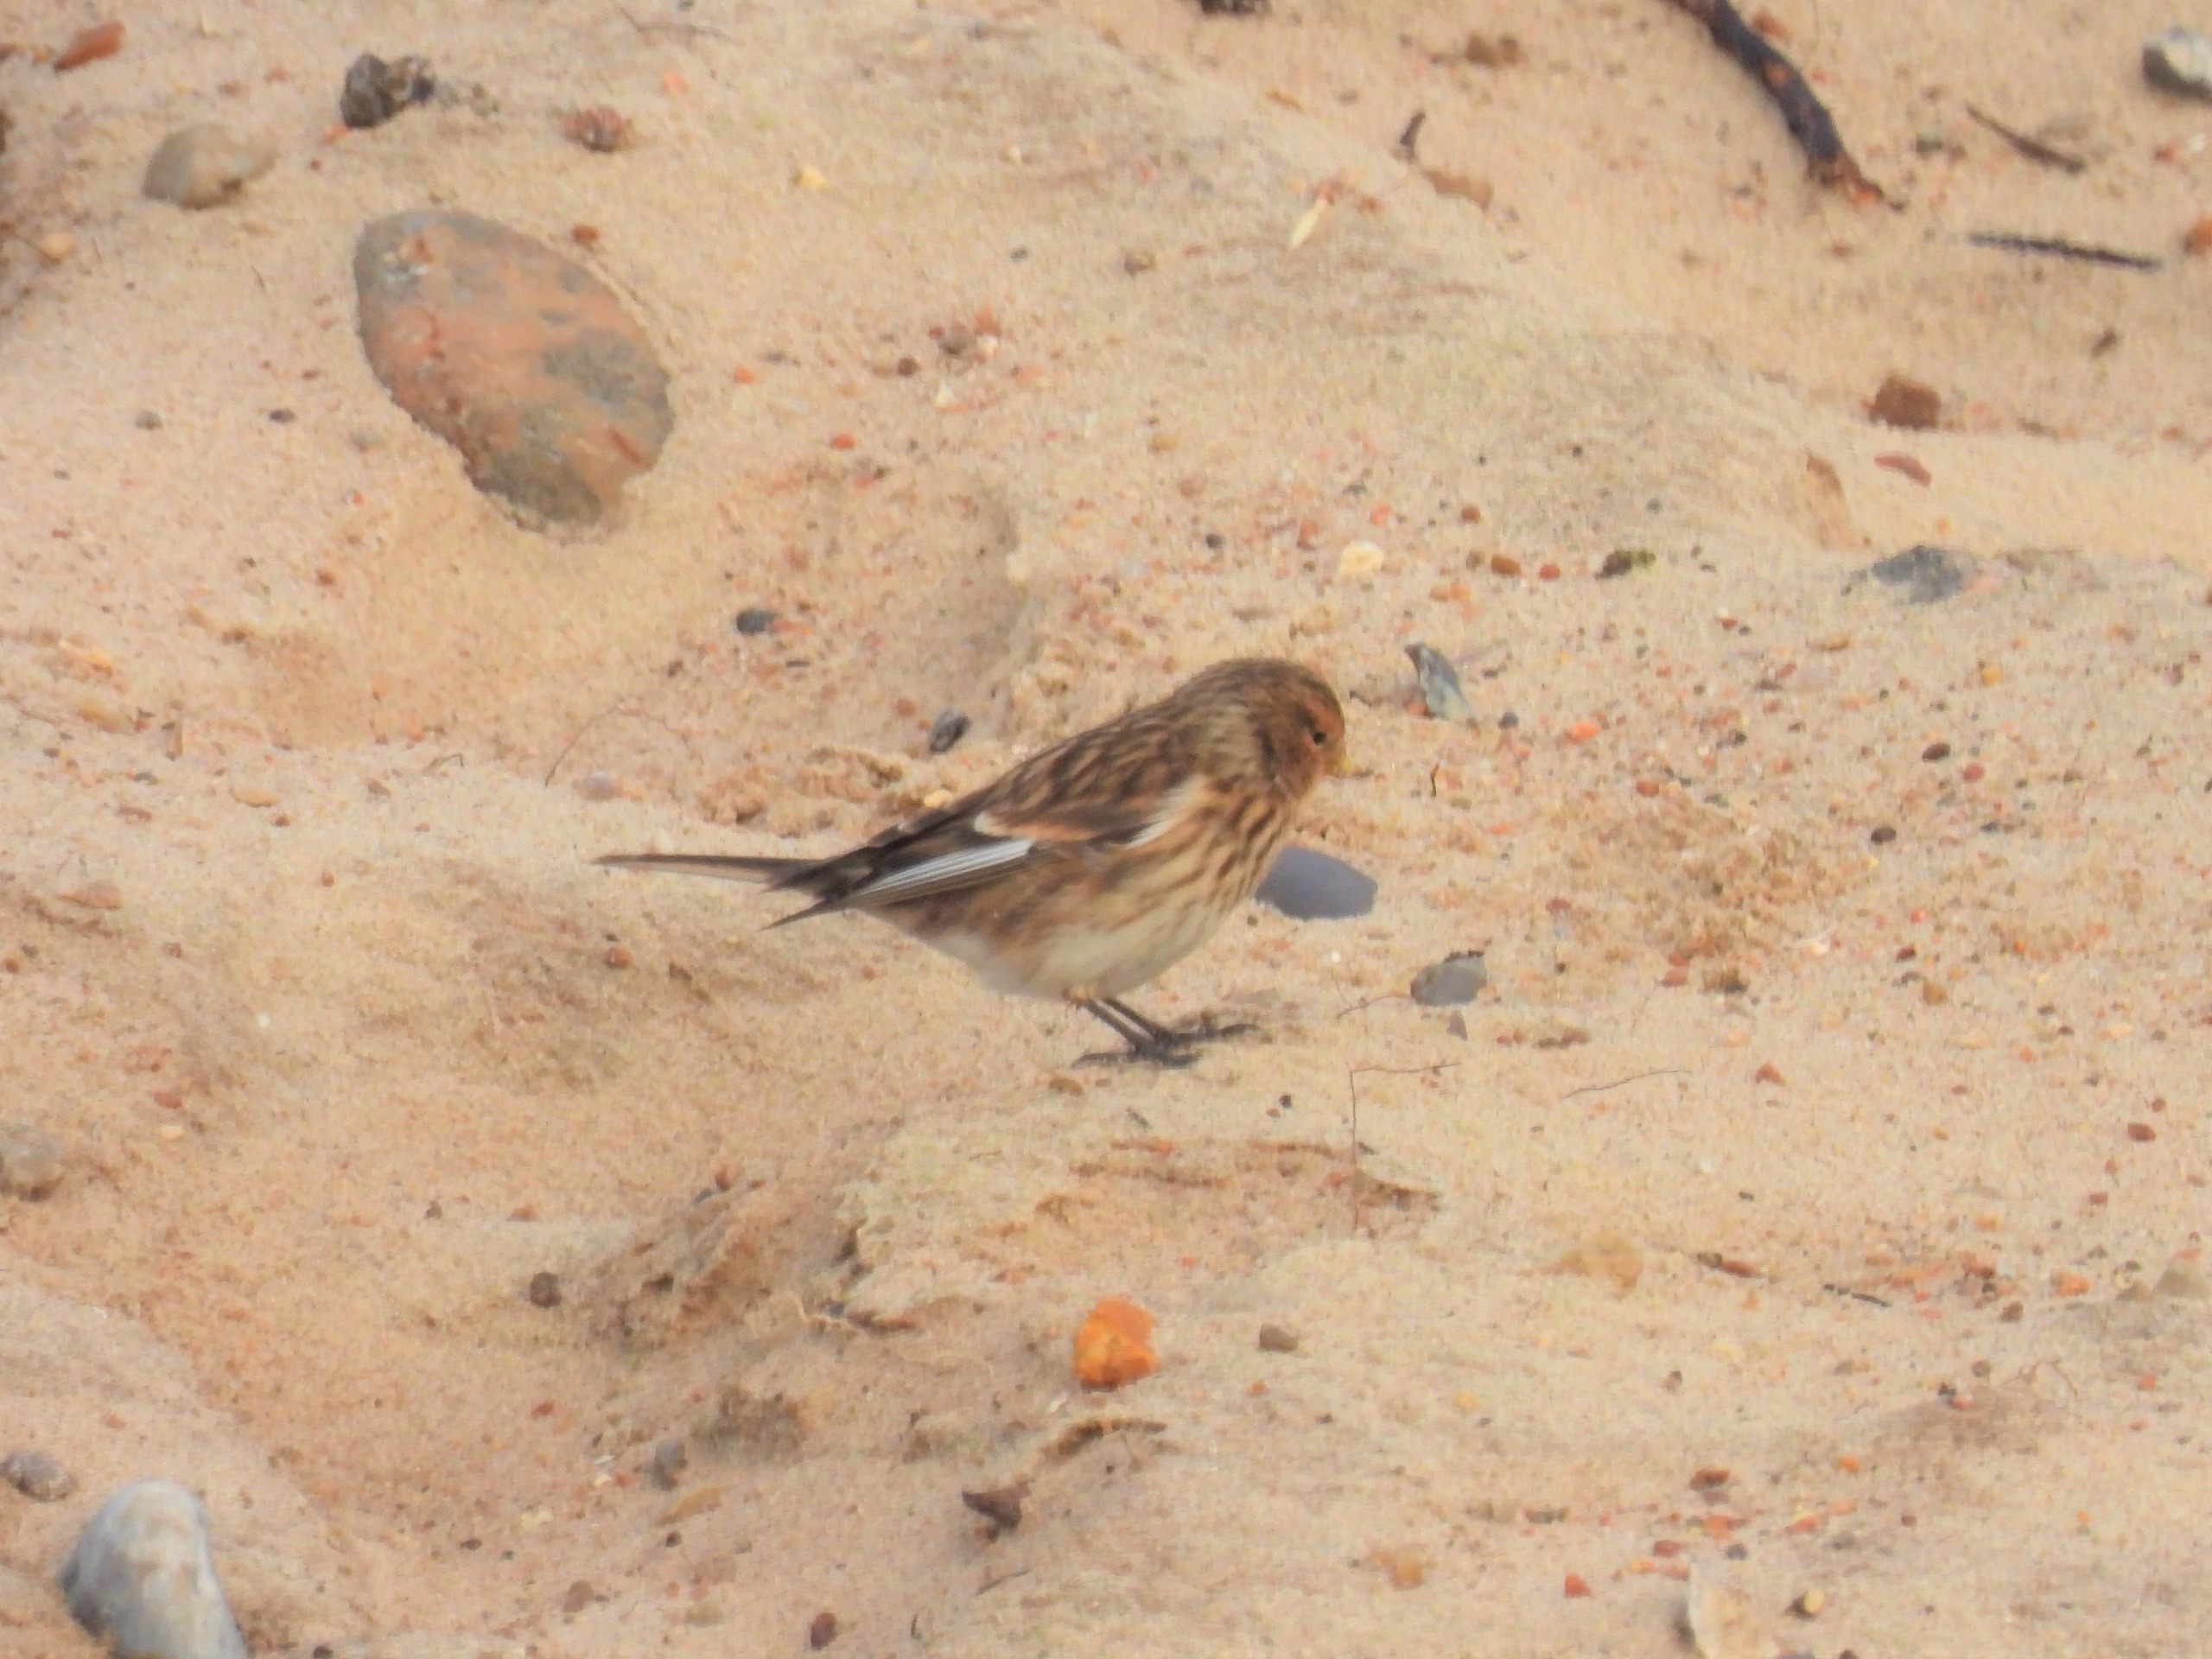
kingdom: Animalia
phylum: Chordata
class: Aves
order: Passeriformes
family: Fringillidae
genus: Linaria
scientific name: Linaria flavirostris
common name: Bjergirisk
